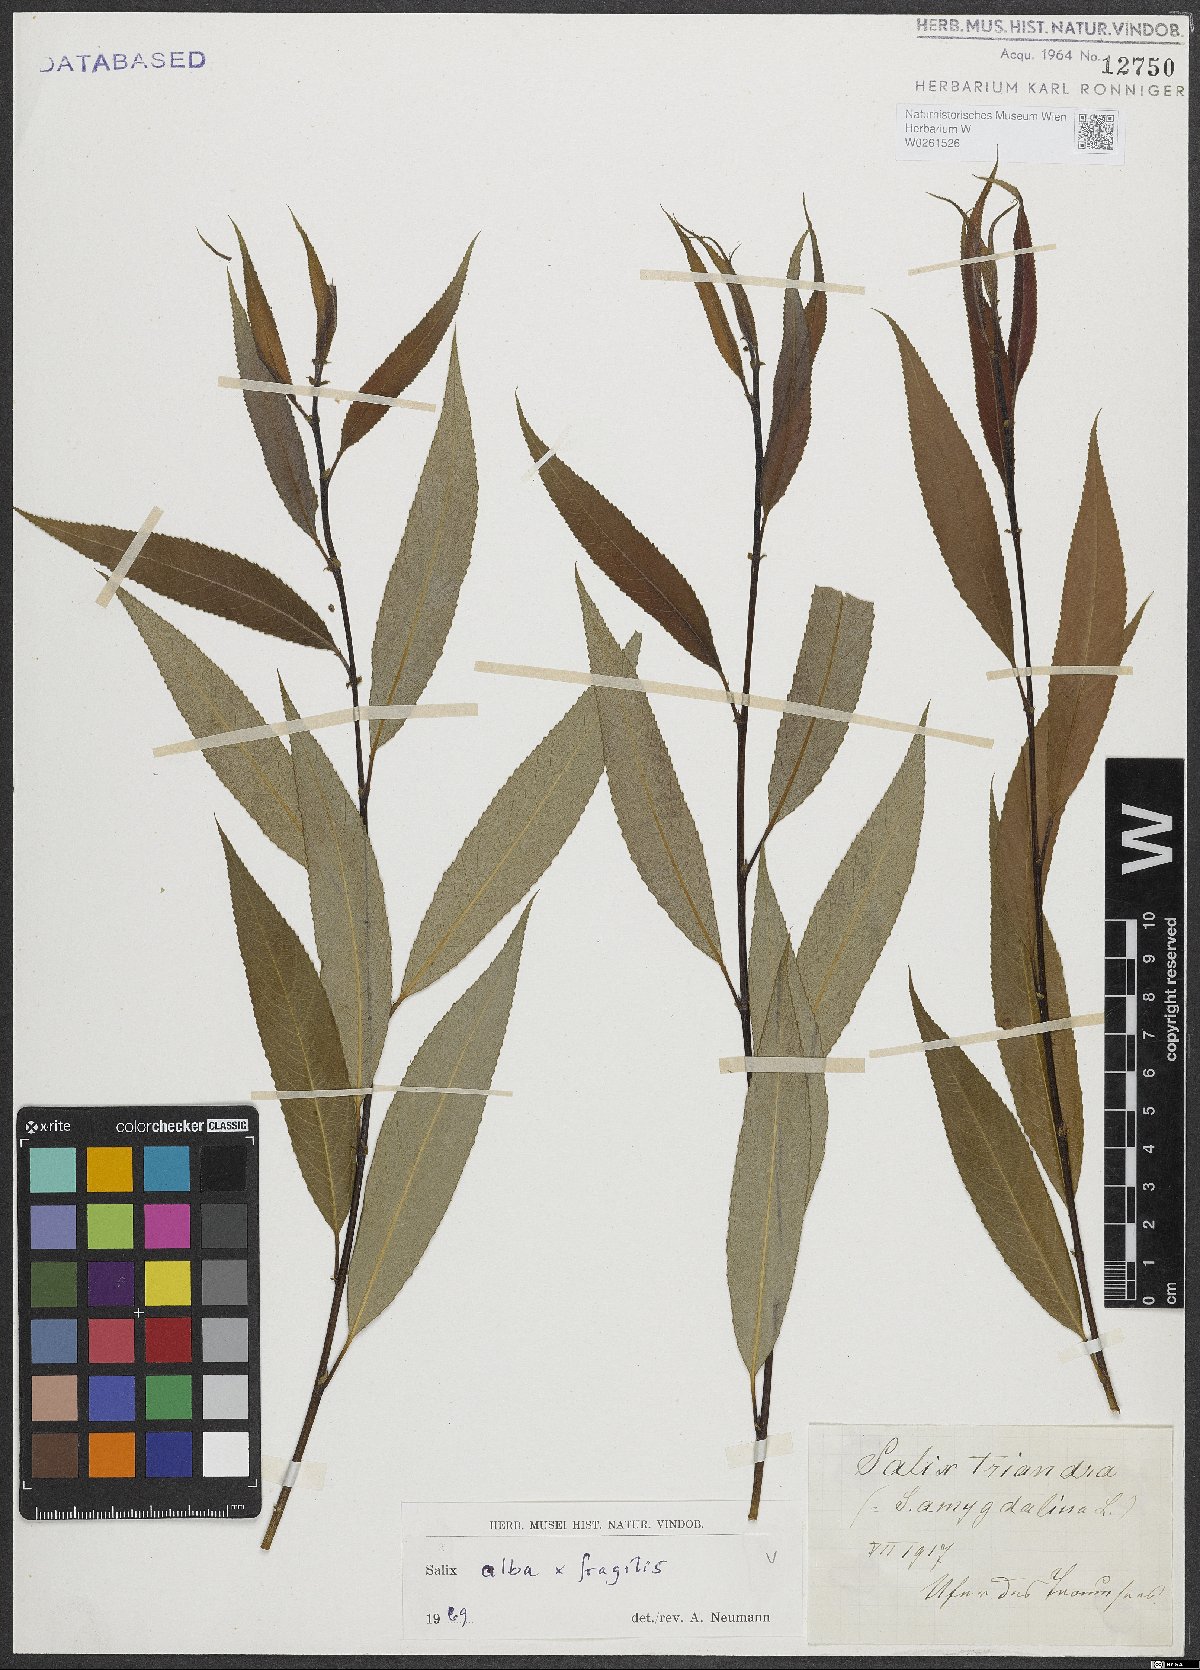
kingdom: Plantae
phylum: Tracheophyta
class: Magnoliopsida
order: Malpighiales
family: Salicaceae
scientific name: Salicaceae
